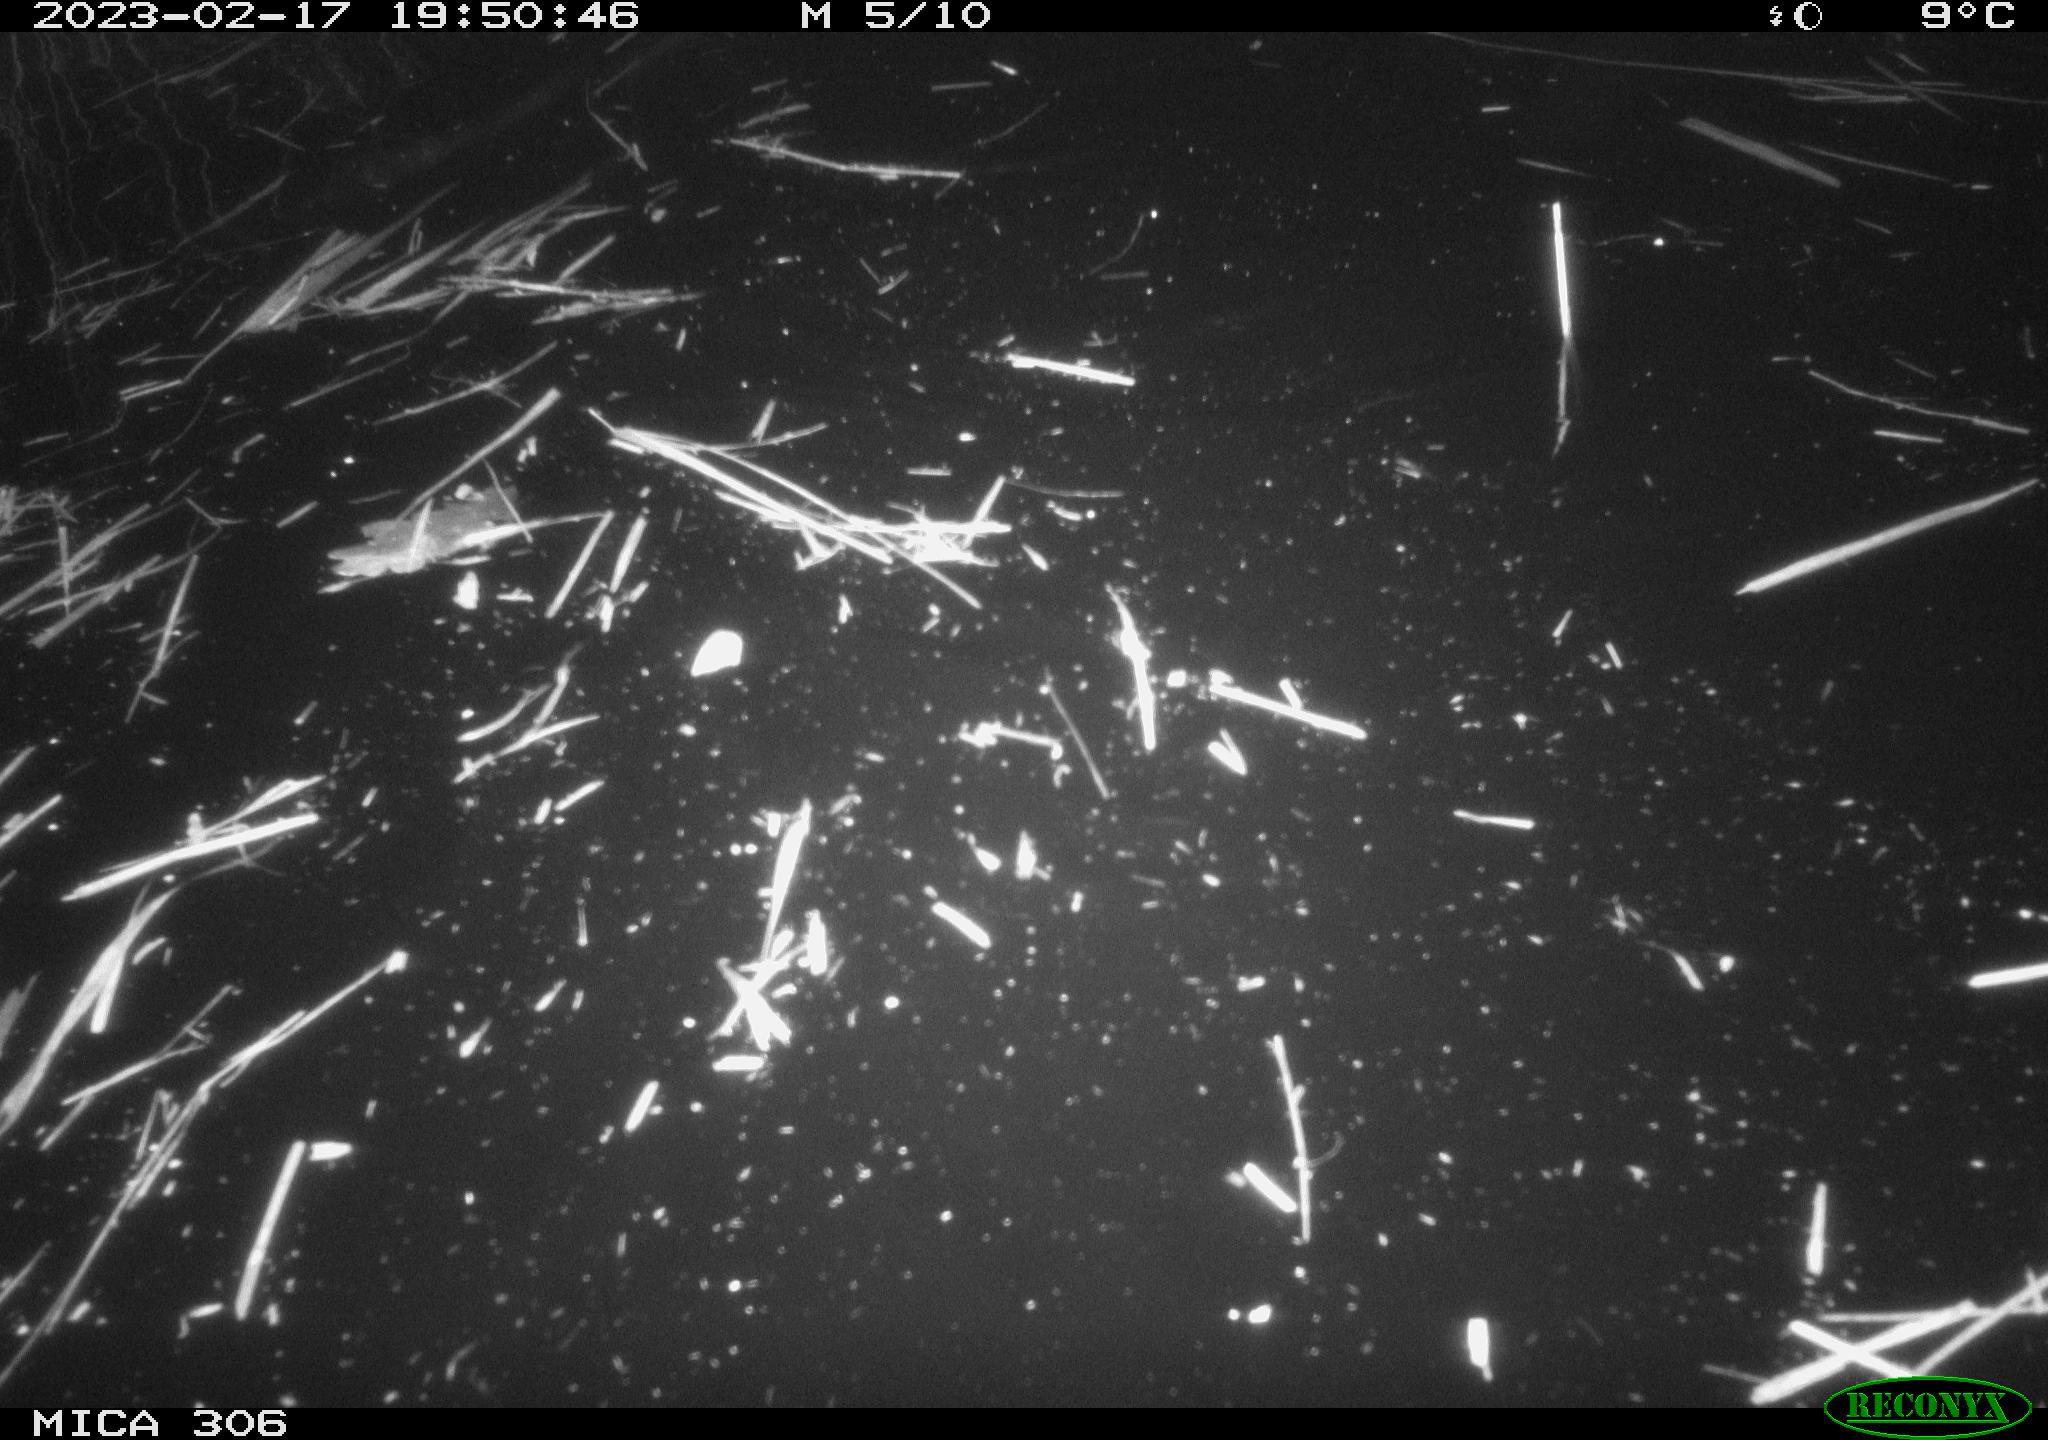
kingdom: Animalia
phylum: Chordata
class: Aves
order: Anseriformes
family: Anatidae
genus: Anas
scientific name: Anas
